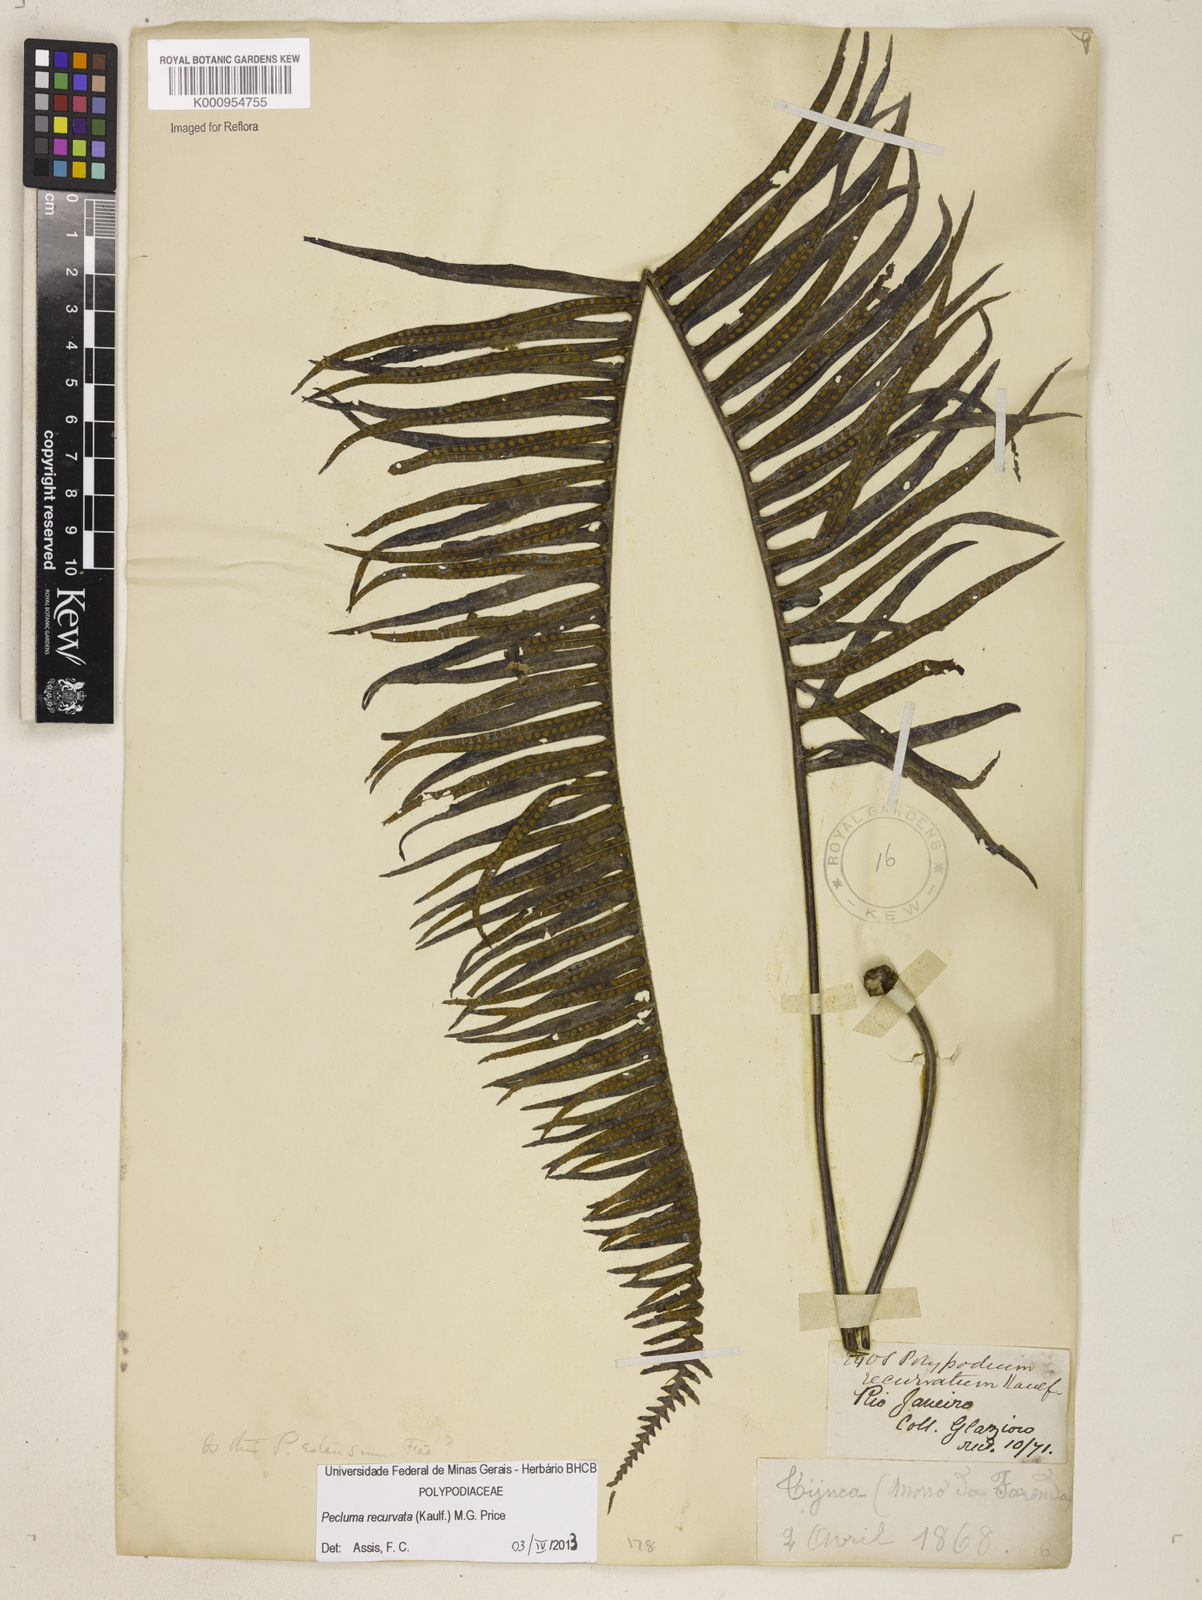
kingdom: Plantae
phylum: Tracheophyta
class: Polypodiopsida
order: Polypodiales
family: Polypodiaceae
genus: Pecluma
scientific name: Pecluma recurvata
